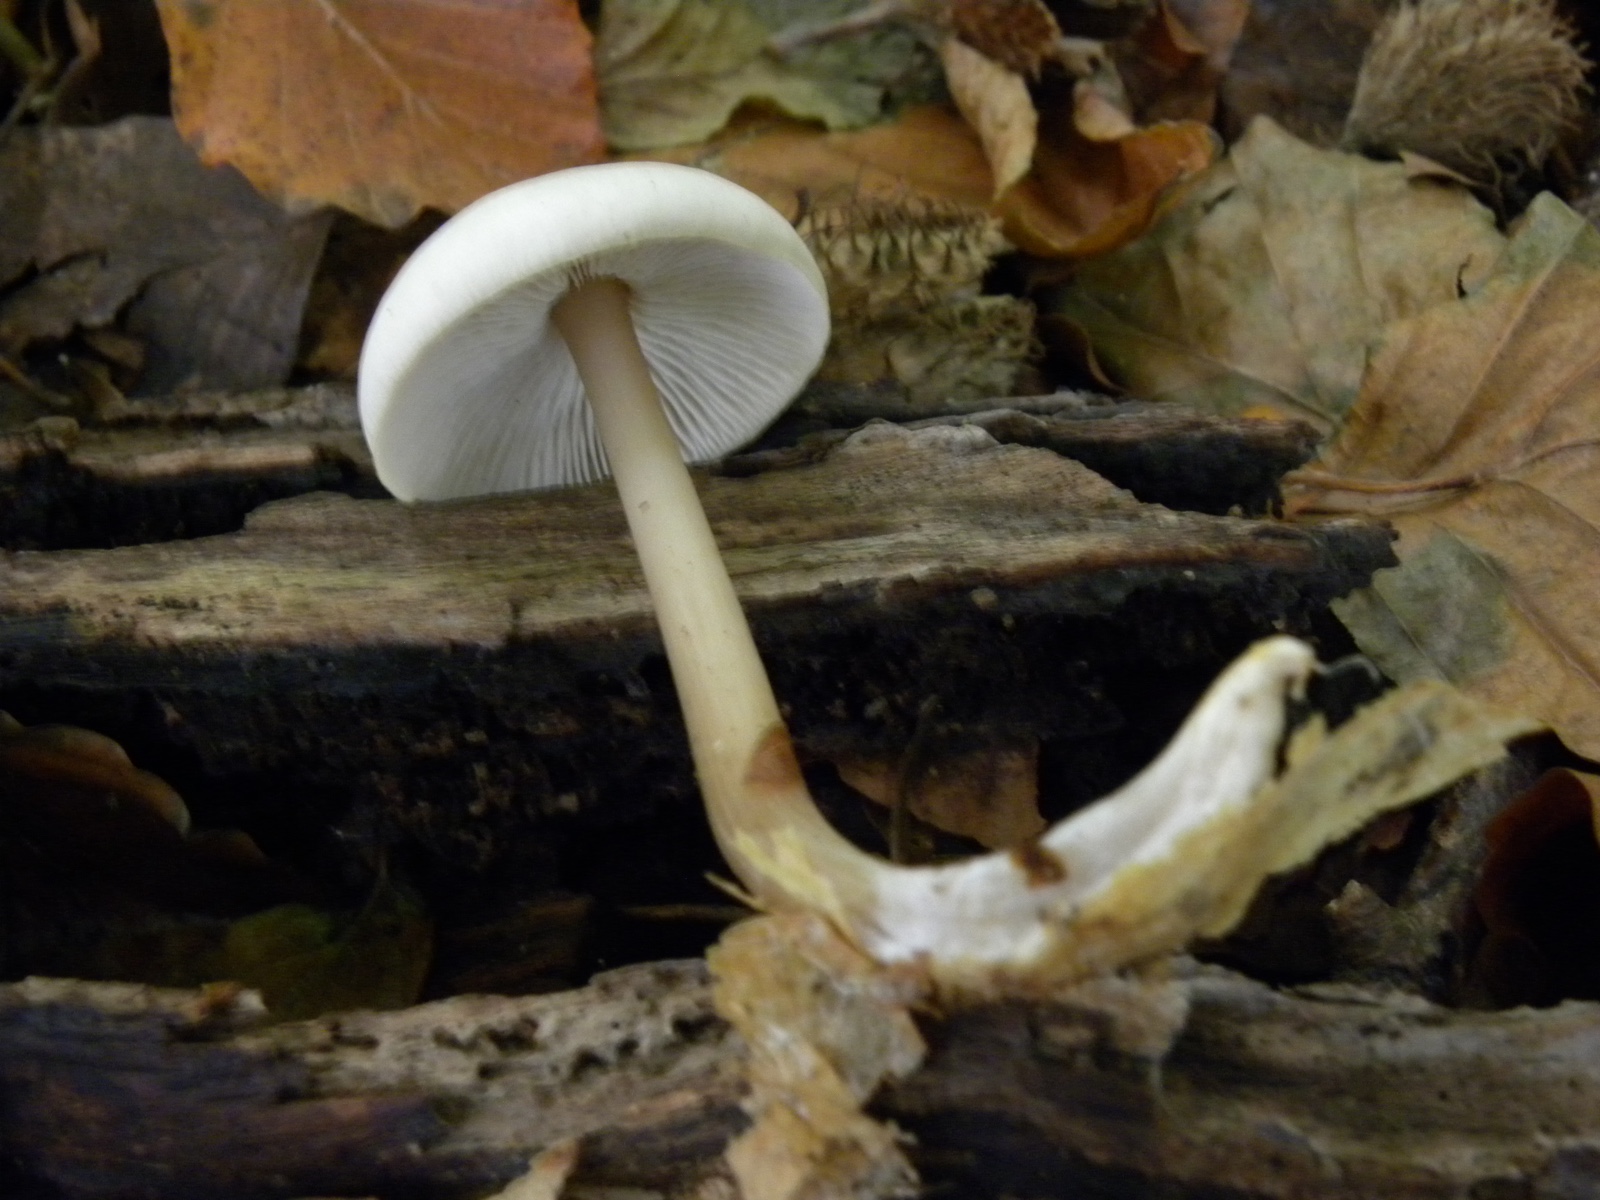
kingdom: Fungi
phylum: Basidiomycota
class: Agaricomycetes
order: Agaricales
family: Omphalotaceae
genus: Rhodocollybia
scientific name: Rhodocollybia asema
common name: horngrå fladhat
